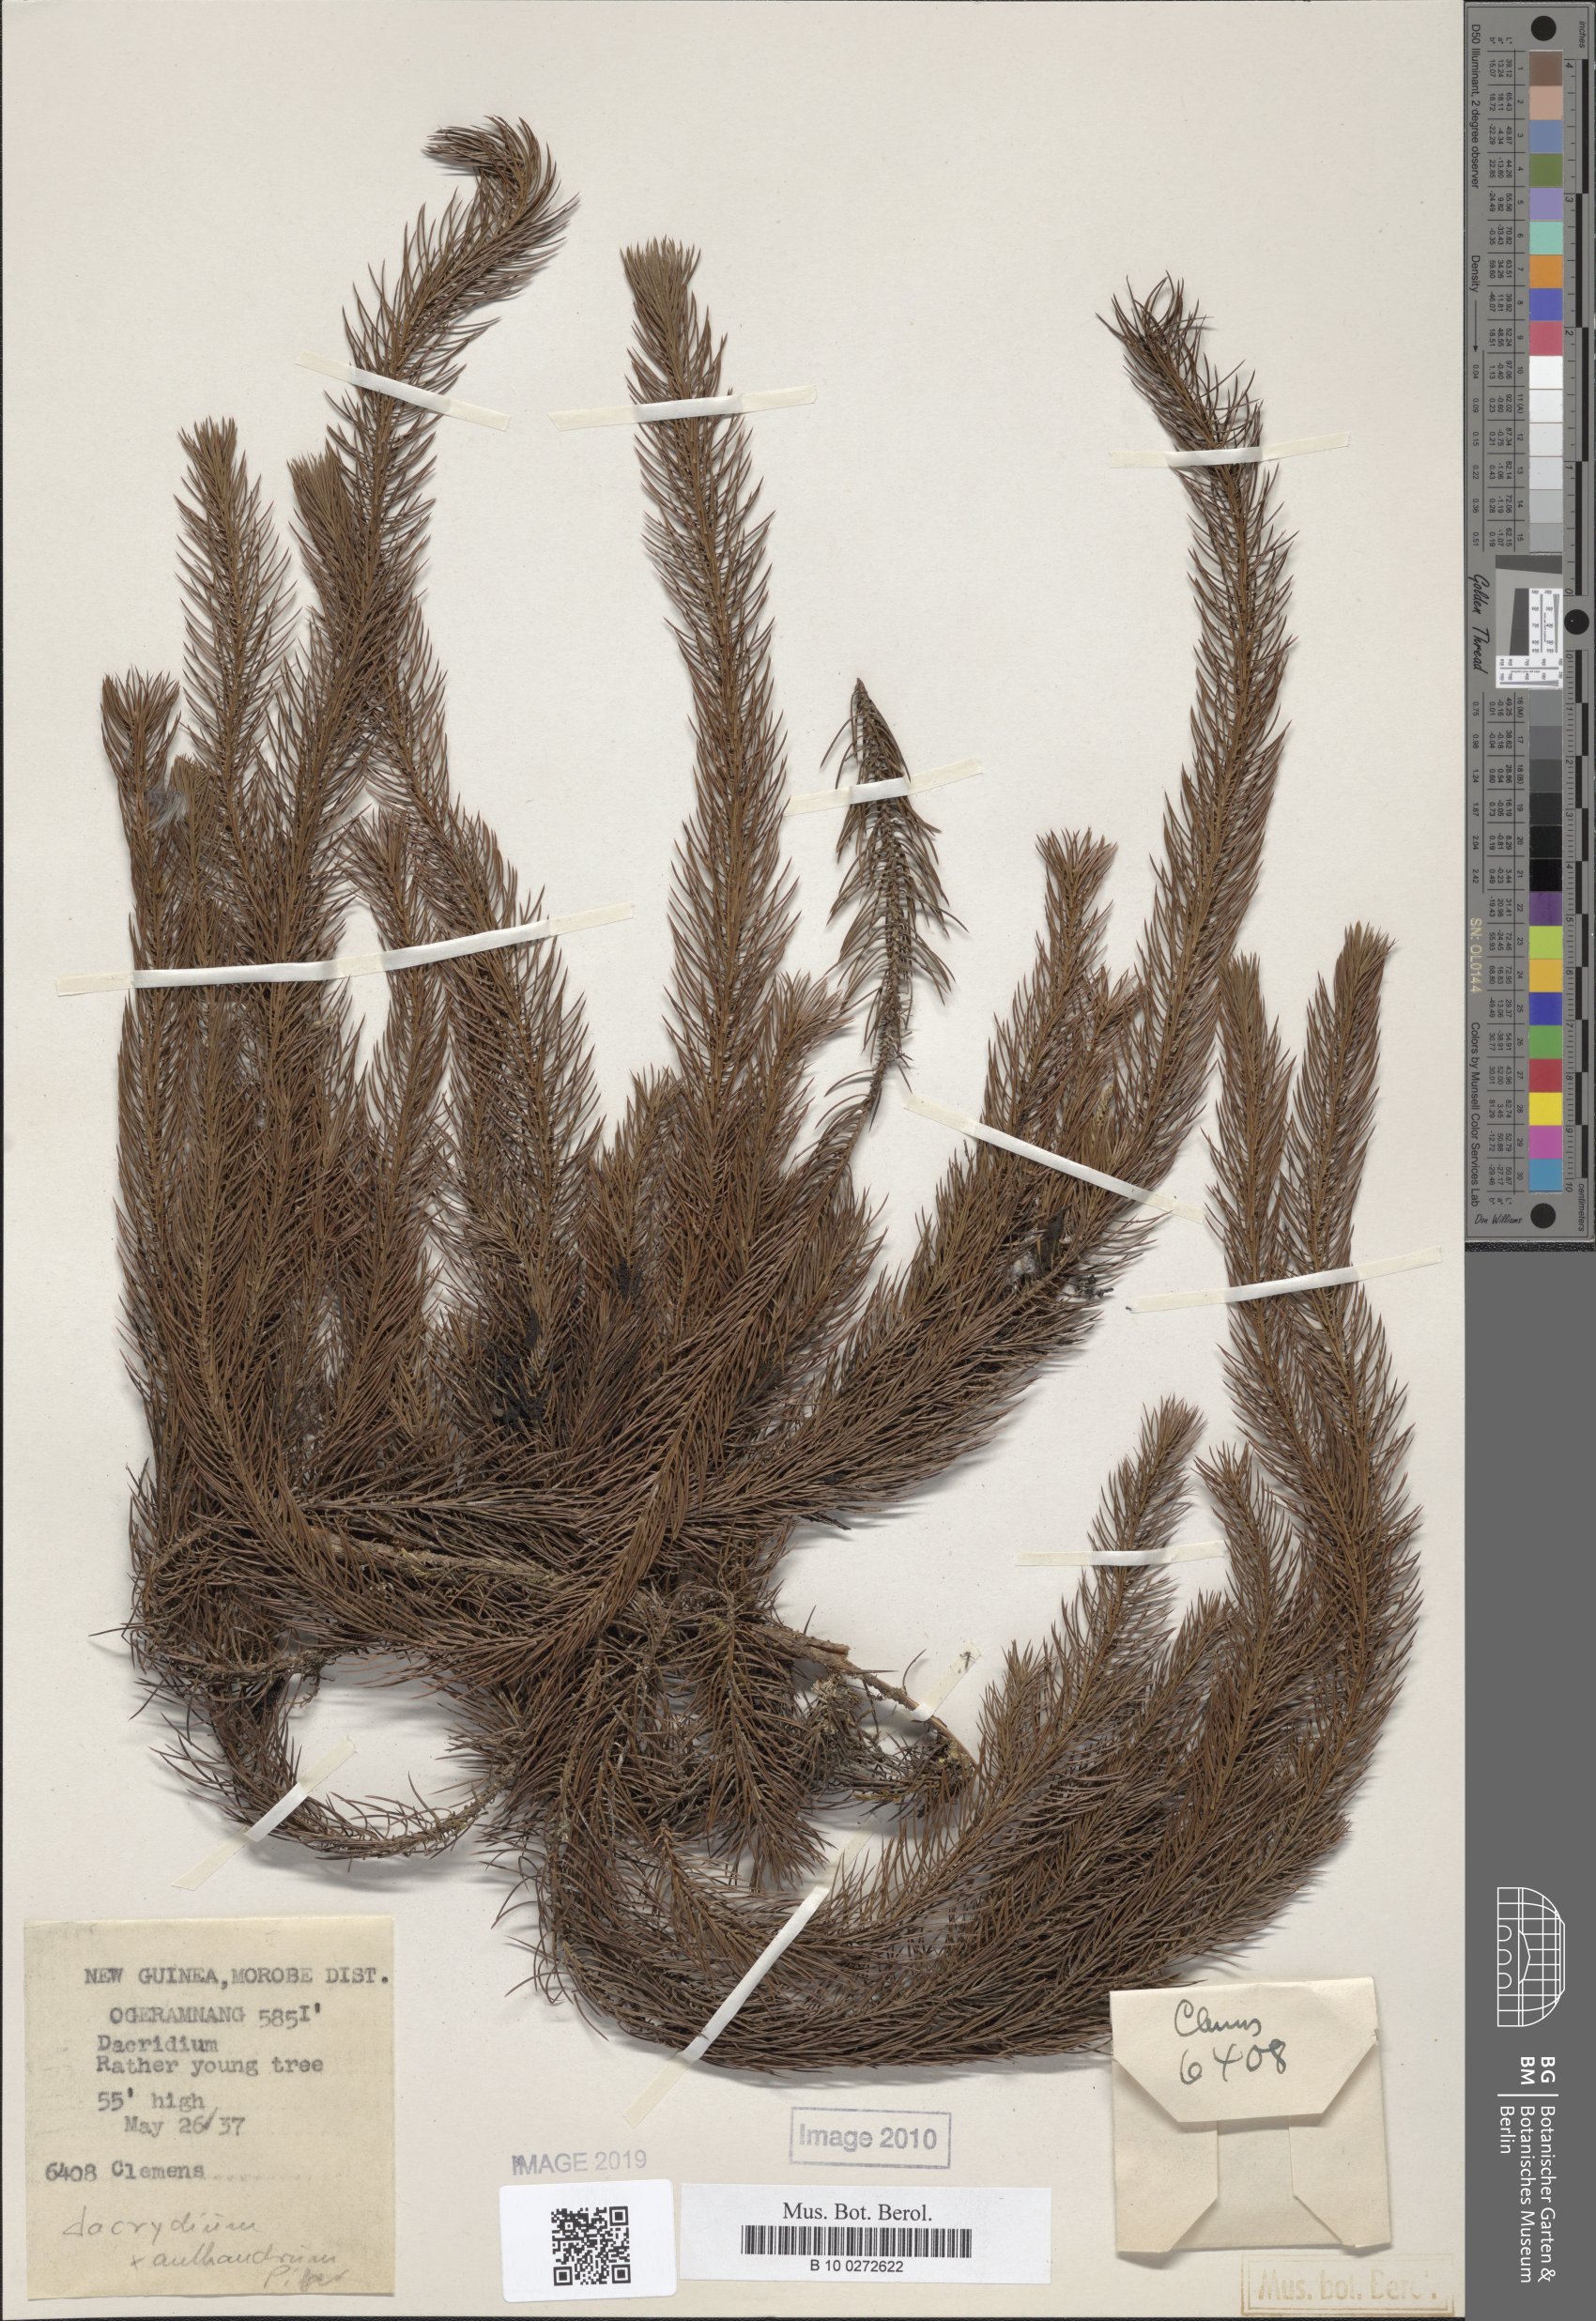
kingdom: Plantae
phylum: Tracheophyta
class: Pinopsida
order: Pinales
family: Podocarpaceae
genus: Dacrydium
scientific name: Dacrydium xanthandrum
